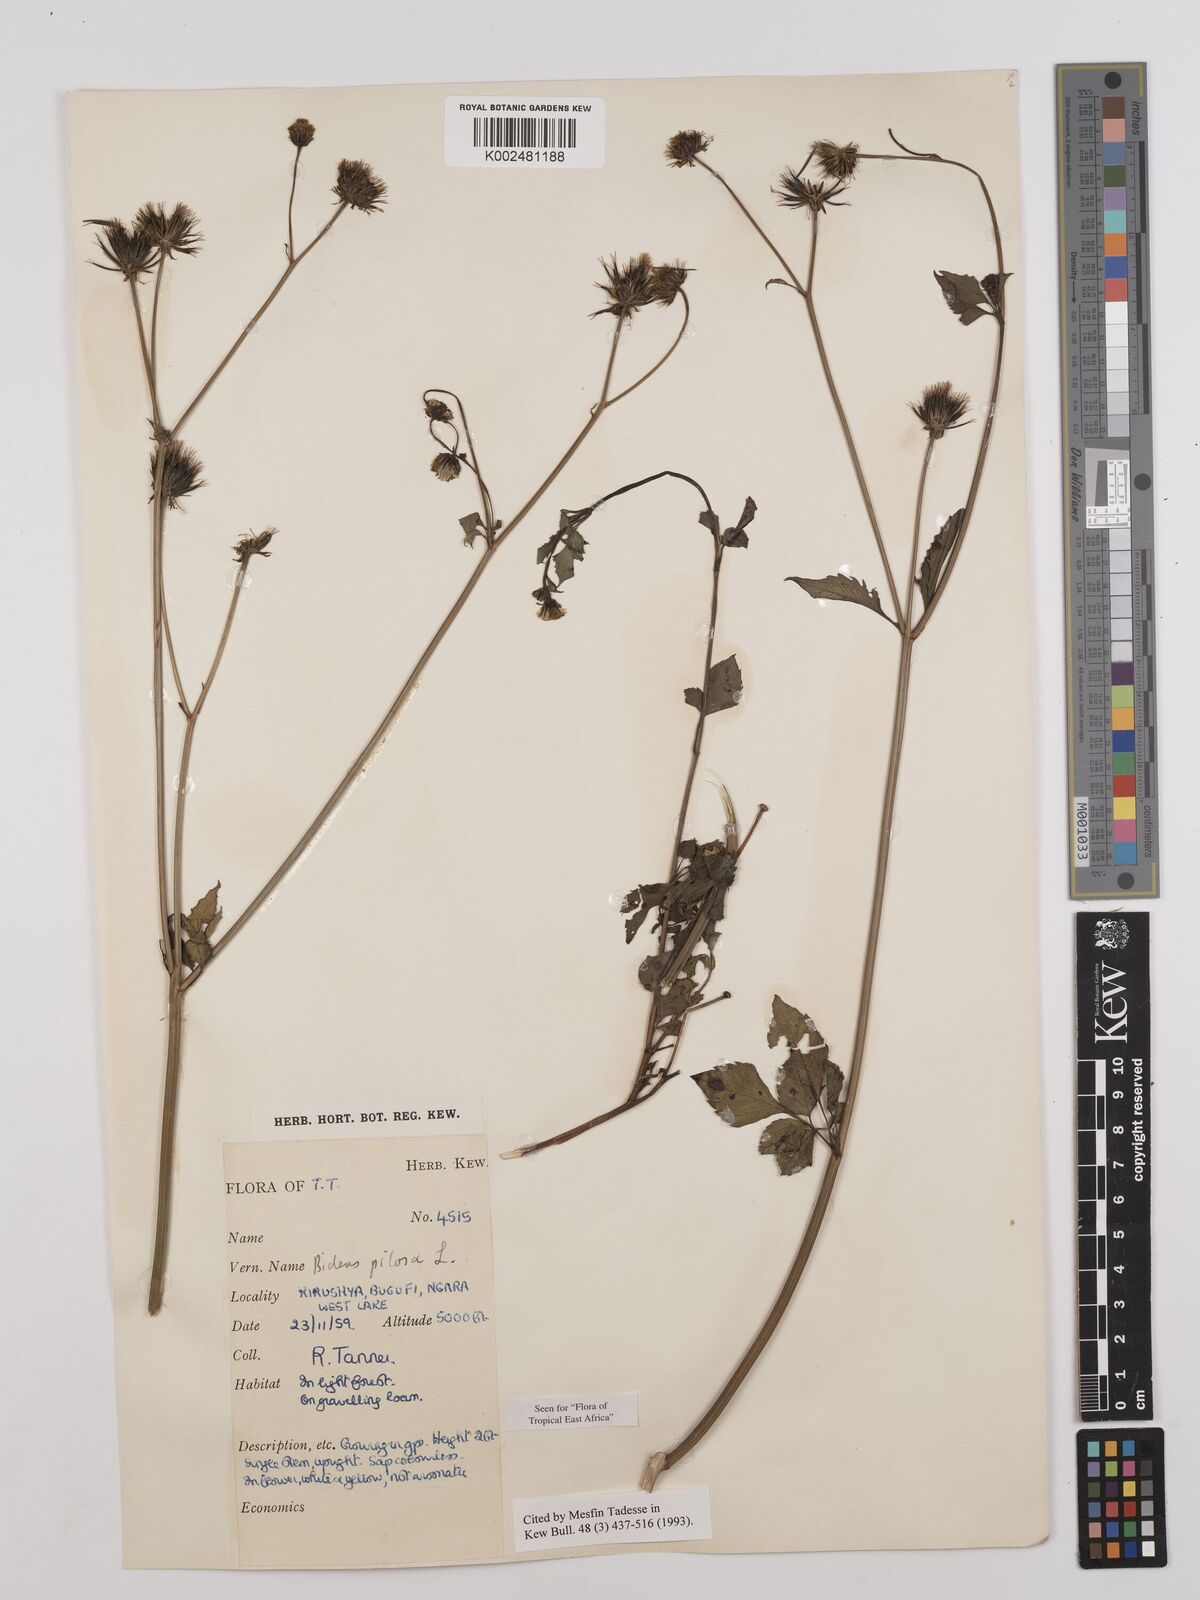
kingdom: Plantae
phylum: Tracheophyta
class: Magnoliopsida
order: Asterales
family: Asteraceae
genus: Bidens
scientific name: Bidens pilosa
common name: Black-jack
